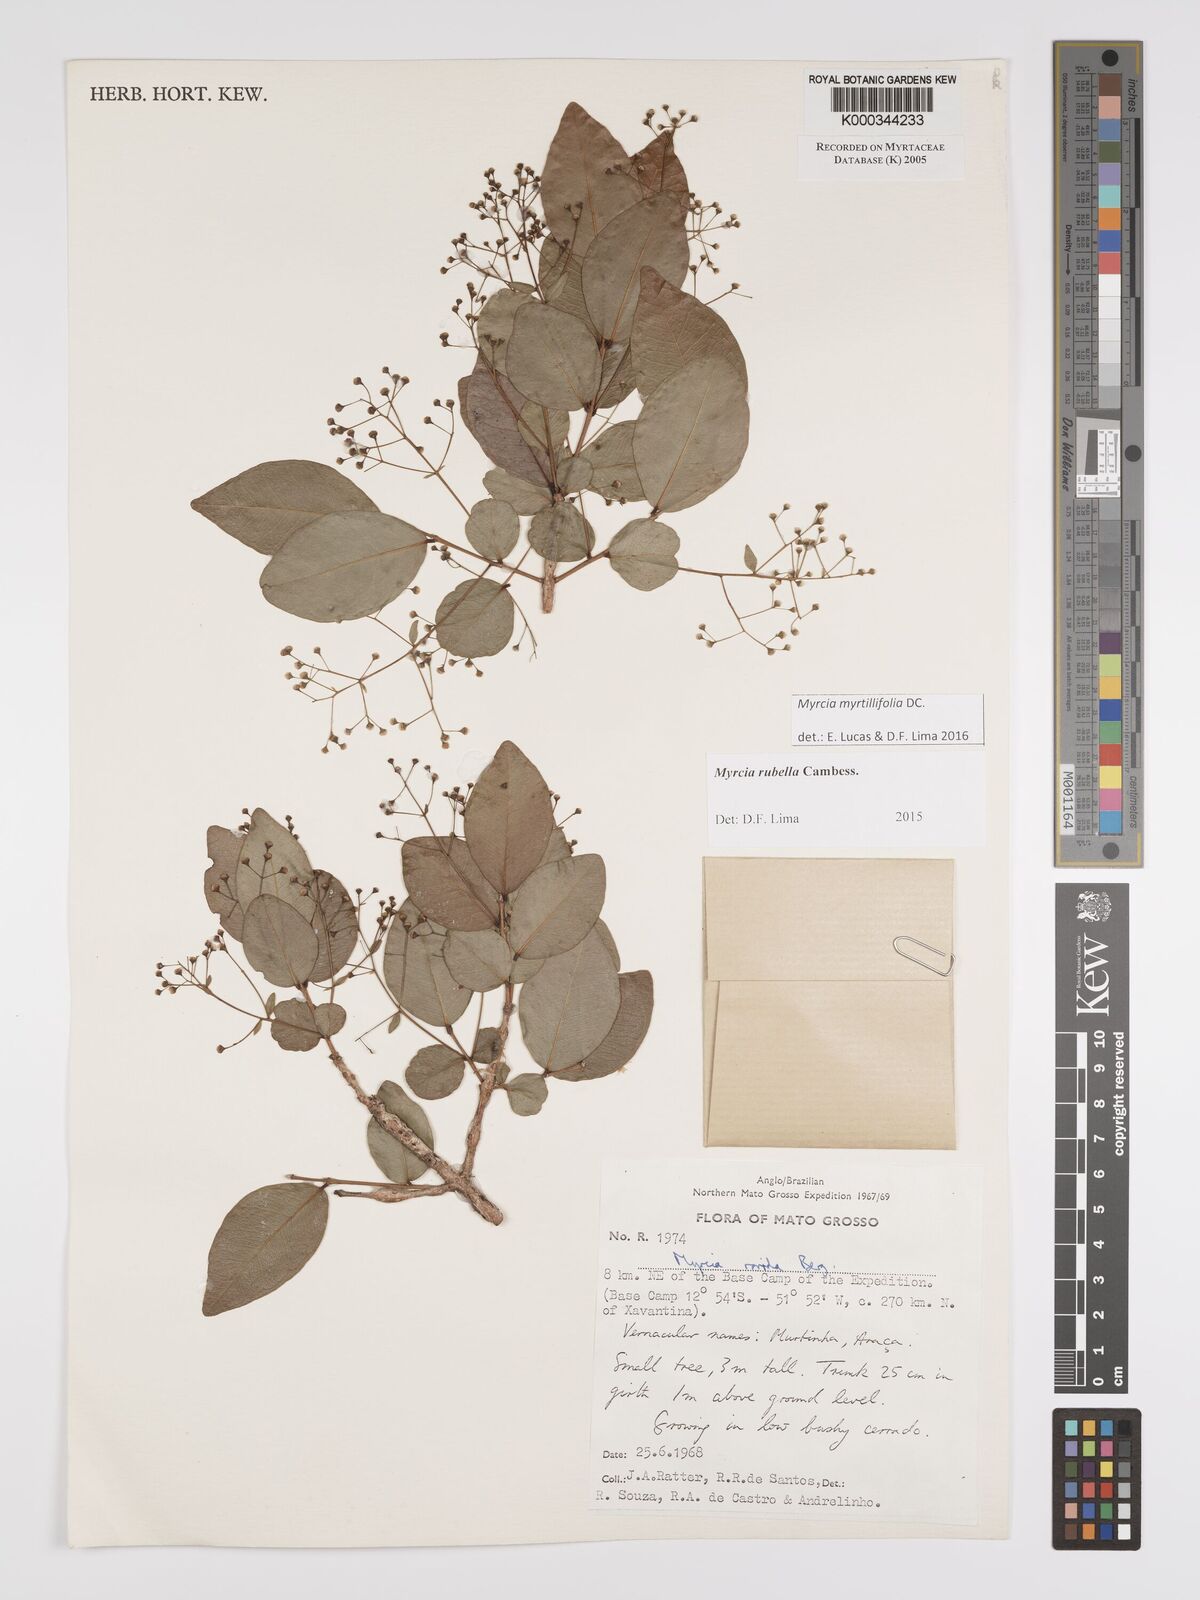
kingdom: Plantae
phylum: Tracheophyta
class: Magnoliopsida
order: Myrtales
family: Myrtaceae
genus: Myrcia
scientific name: Myrcia guianensis
